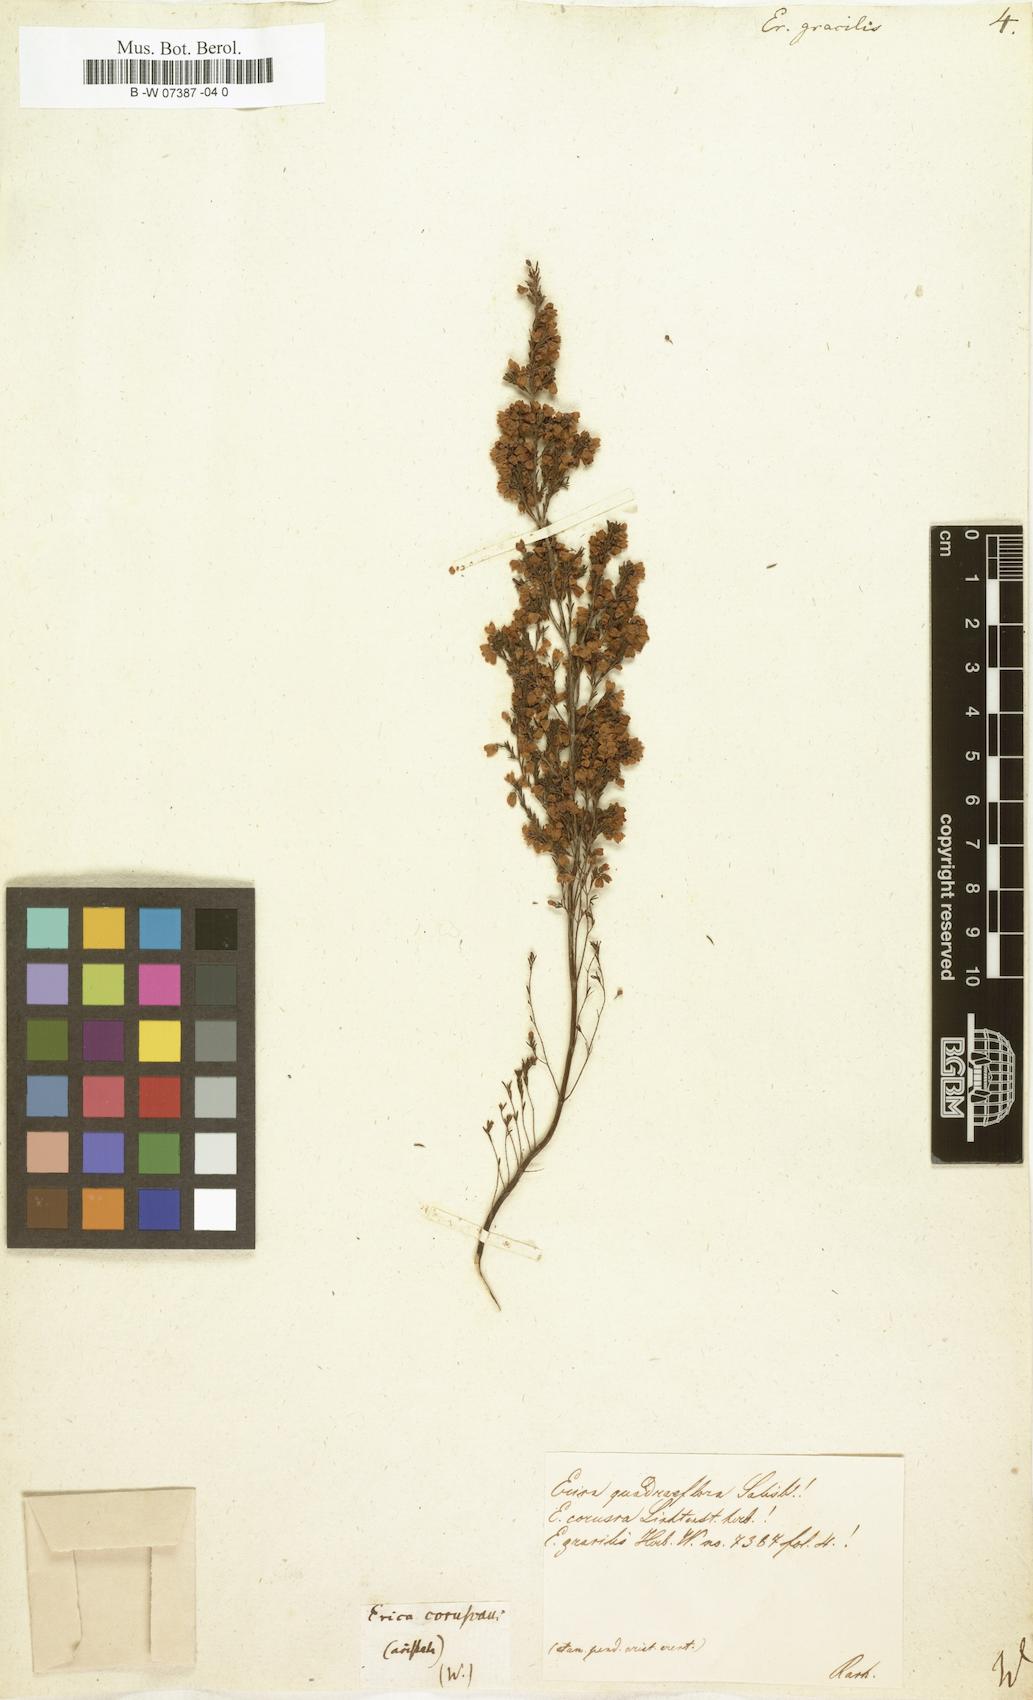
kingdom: Plantae
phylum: Tracheophyta
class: Magnoliopsida
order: Ericales
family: Ericaceae
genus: Erica
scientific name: Erica gracilis
